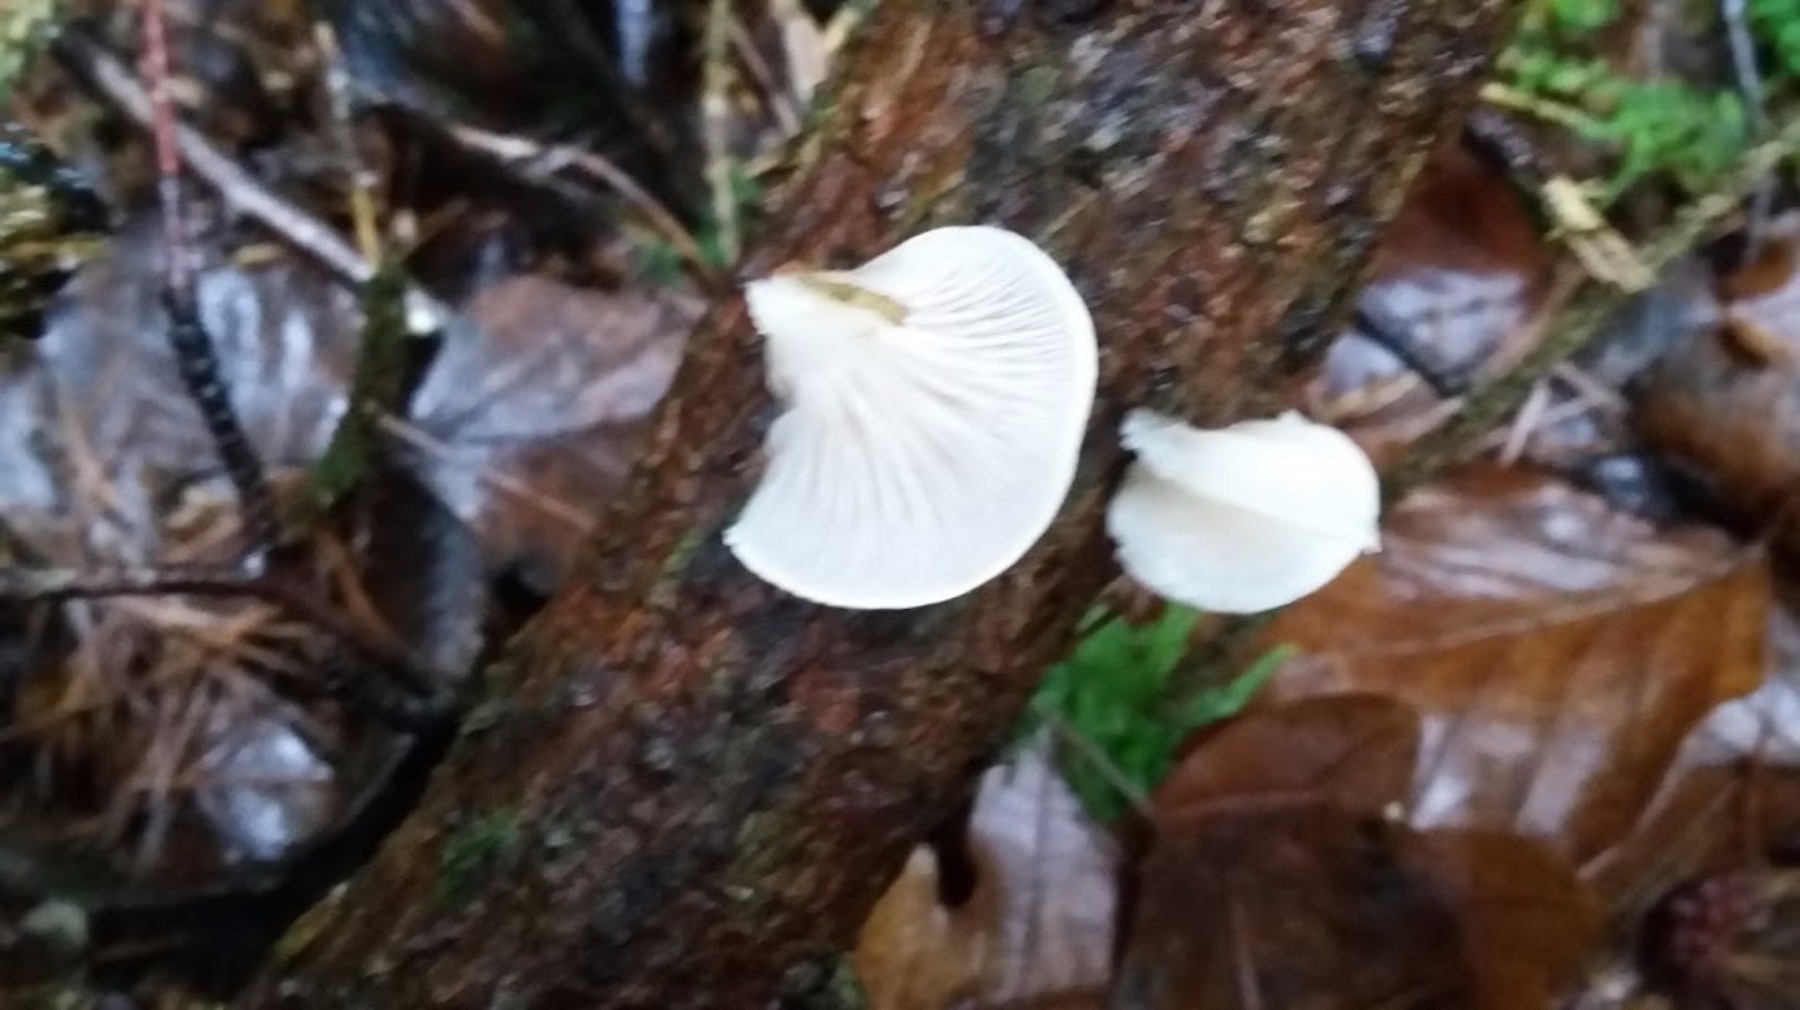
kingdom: Fungi
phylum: Basidiomycota
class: Agaricomycetes
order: Agaricales
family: Mycenaceae
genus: Panellus
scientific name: Panellus mitis
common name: mild epaulethat
